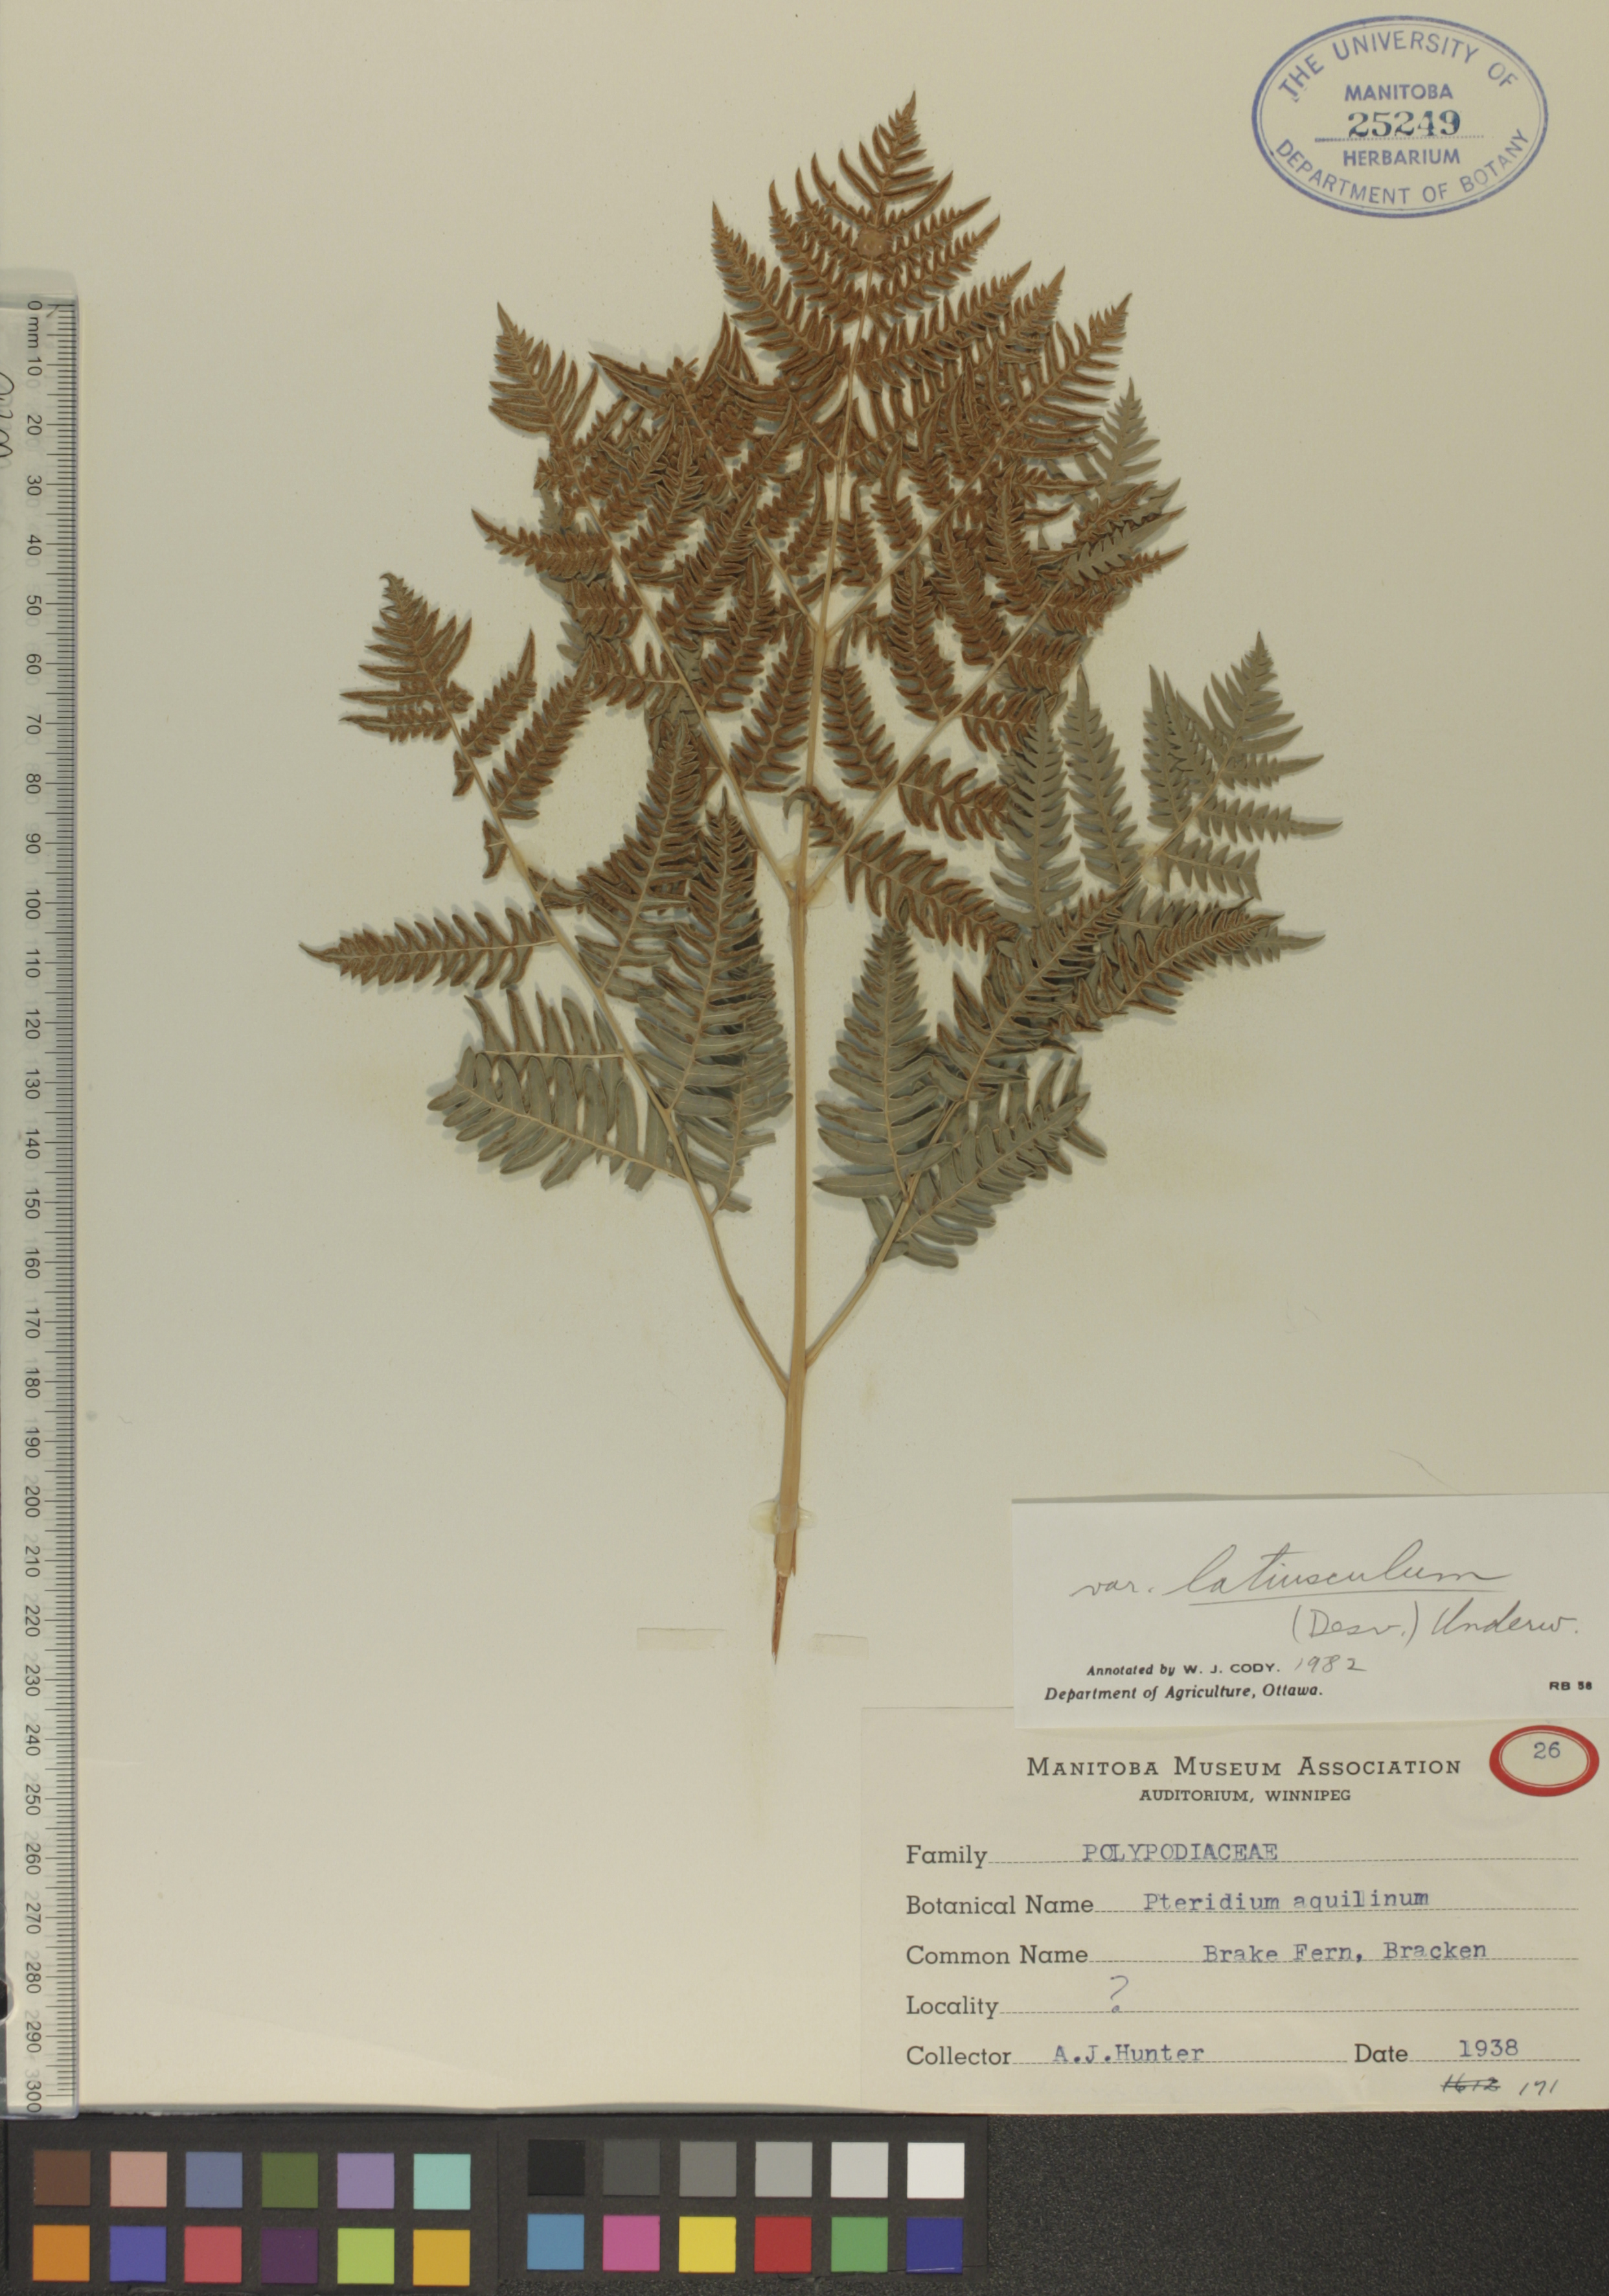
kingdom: Plantae
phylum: Tracheophyta
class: Polypodiopsida
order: Polypodiales
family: Dennstaedtiaceae
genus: Pteridium
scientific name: Pteridium aquilinum
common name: Bracken
